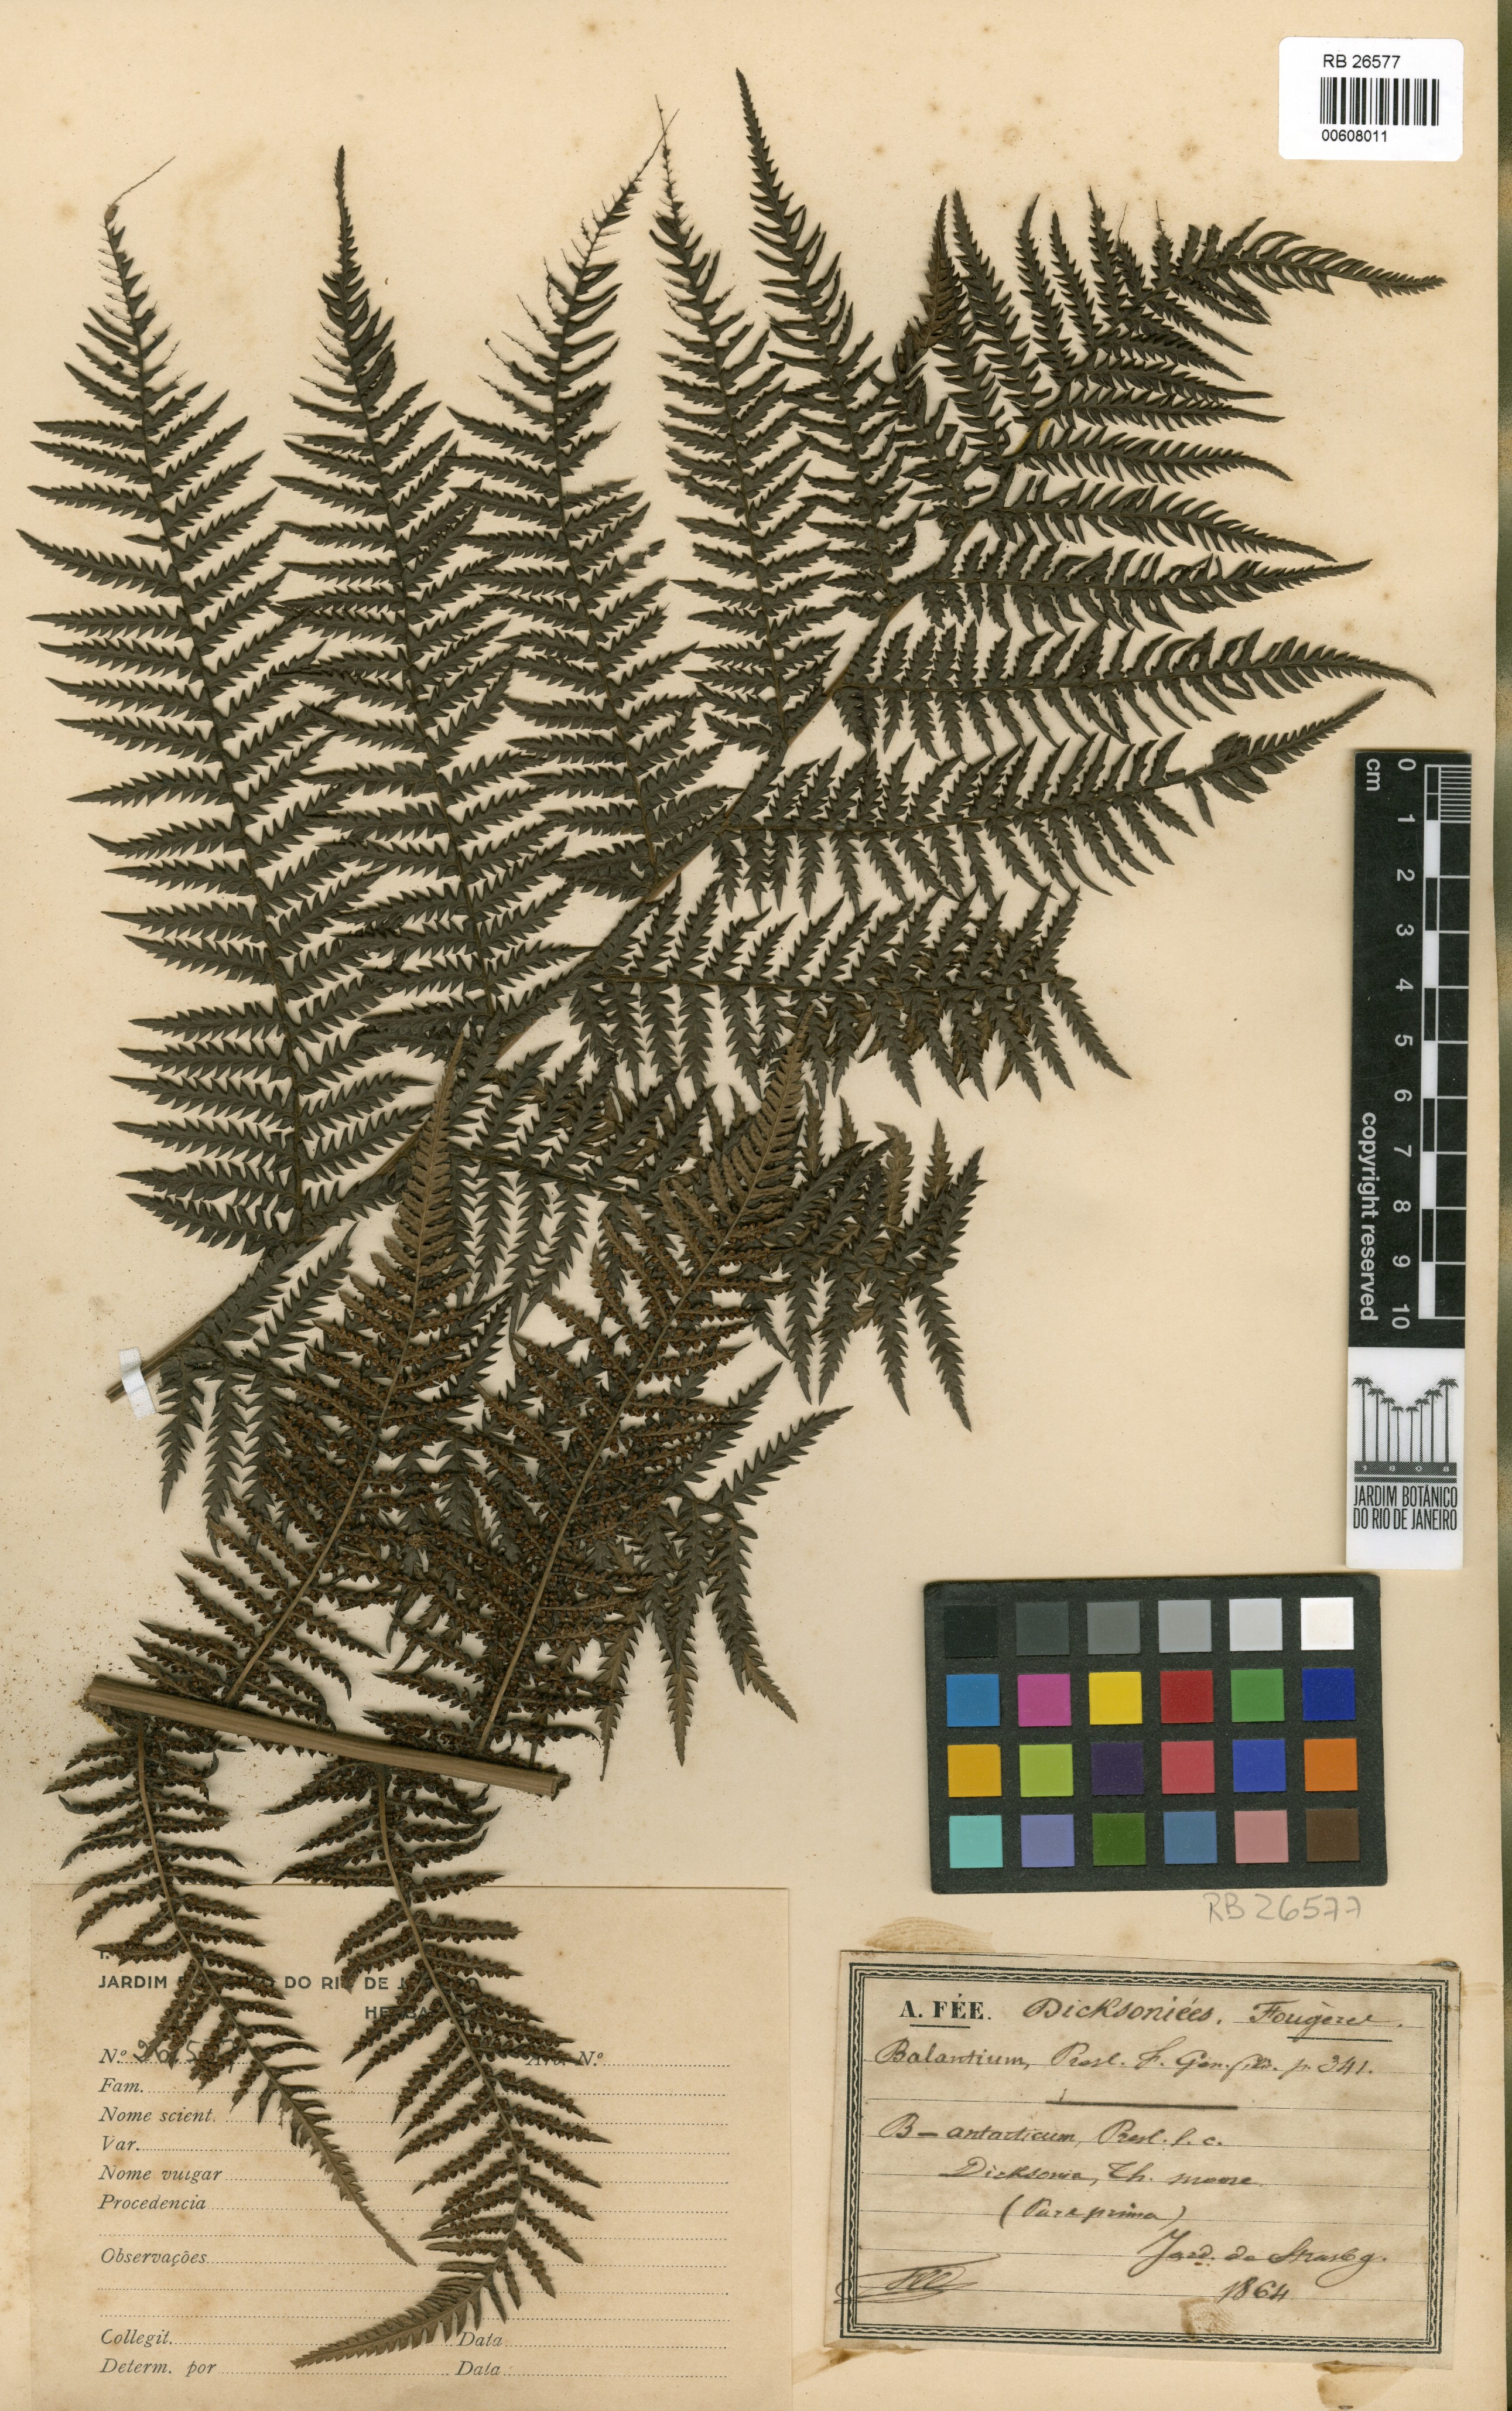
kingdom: Plantae
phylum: Tracheophyta
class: Polypodiopsida
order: Cyatheales
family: Dicksoniaceae
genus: Dicksonia
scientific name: Dicksonia antarctica
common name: Australian treefern
